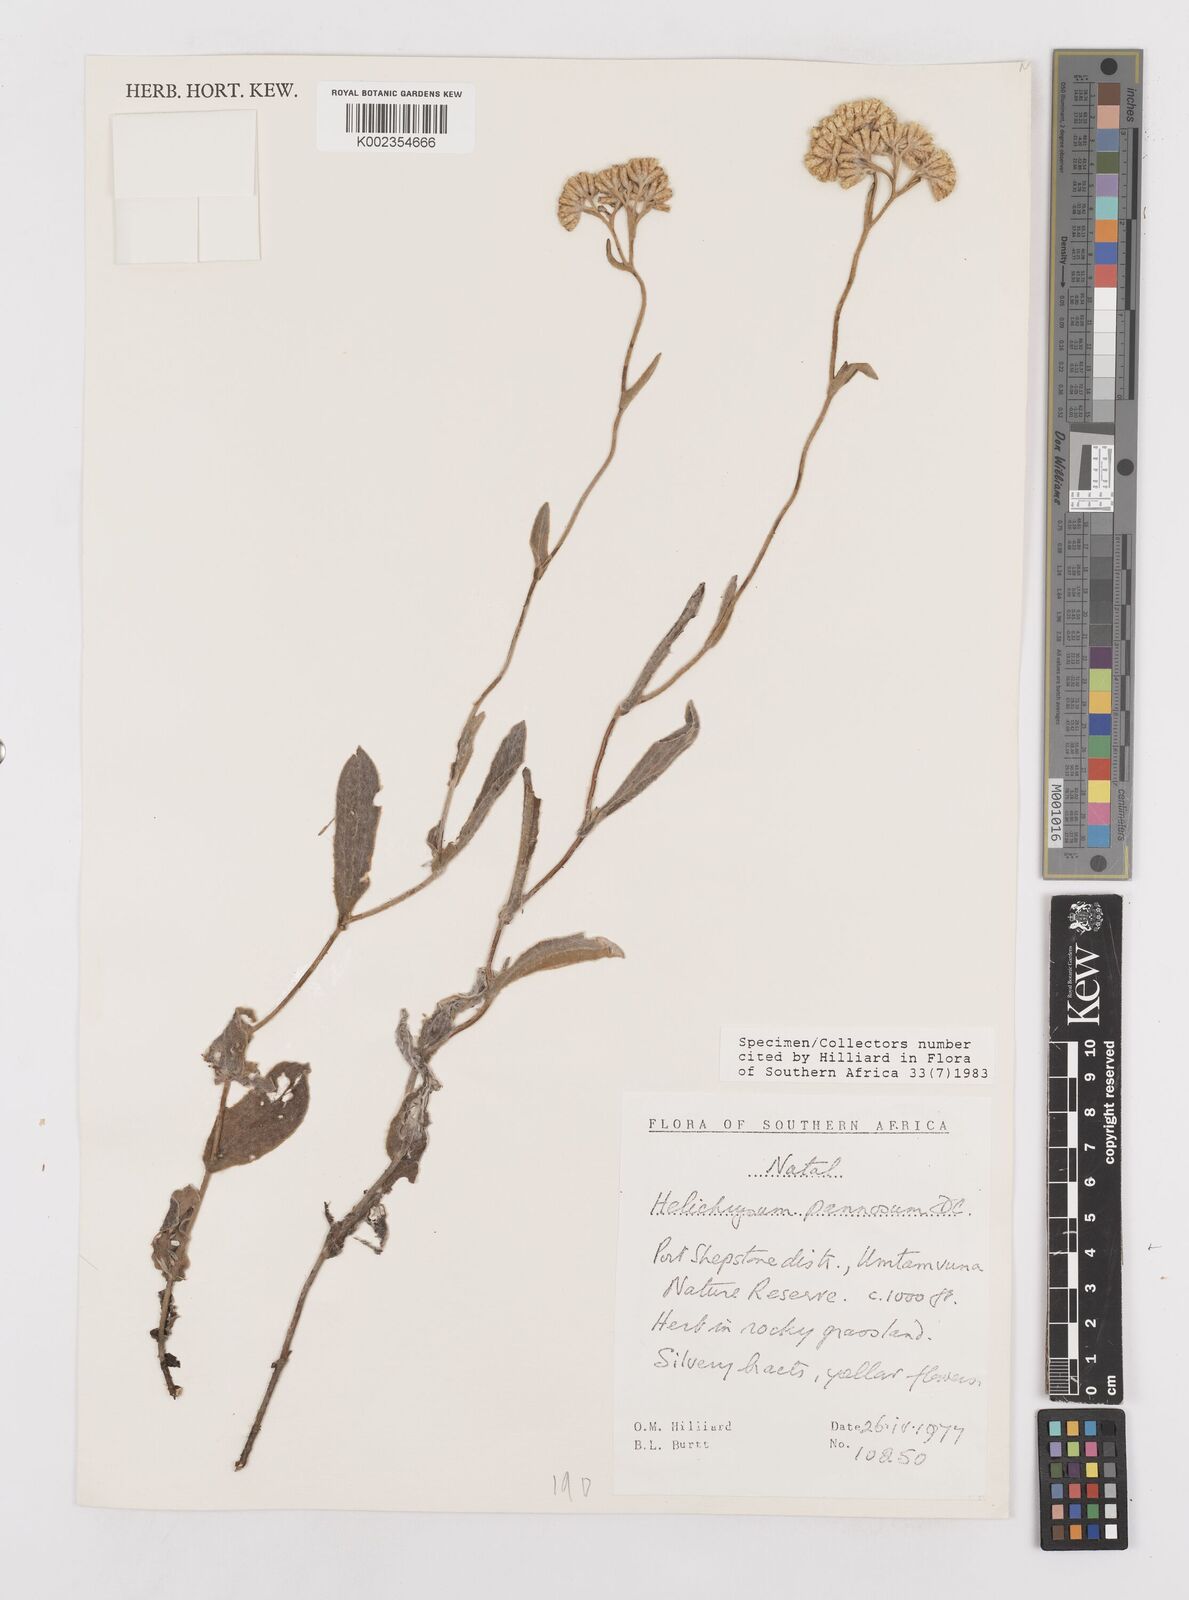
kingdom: Plantae
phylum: Tracheophyta
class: Magnoliopsida
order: Asterales
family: Asteraceae
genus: Helichrysum
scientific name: Helichrysum pannosum
